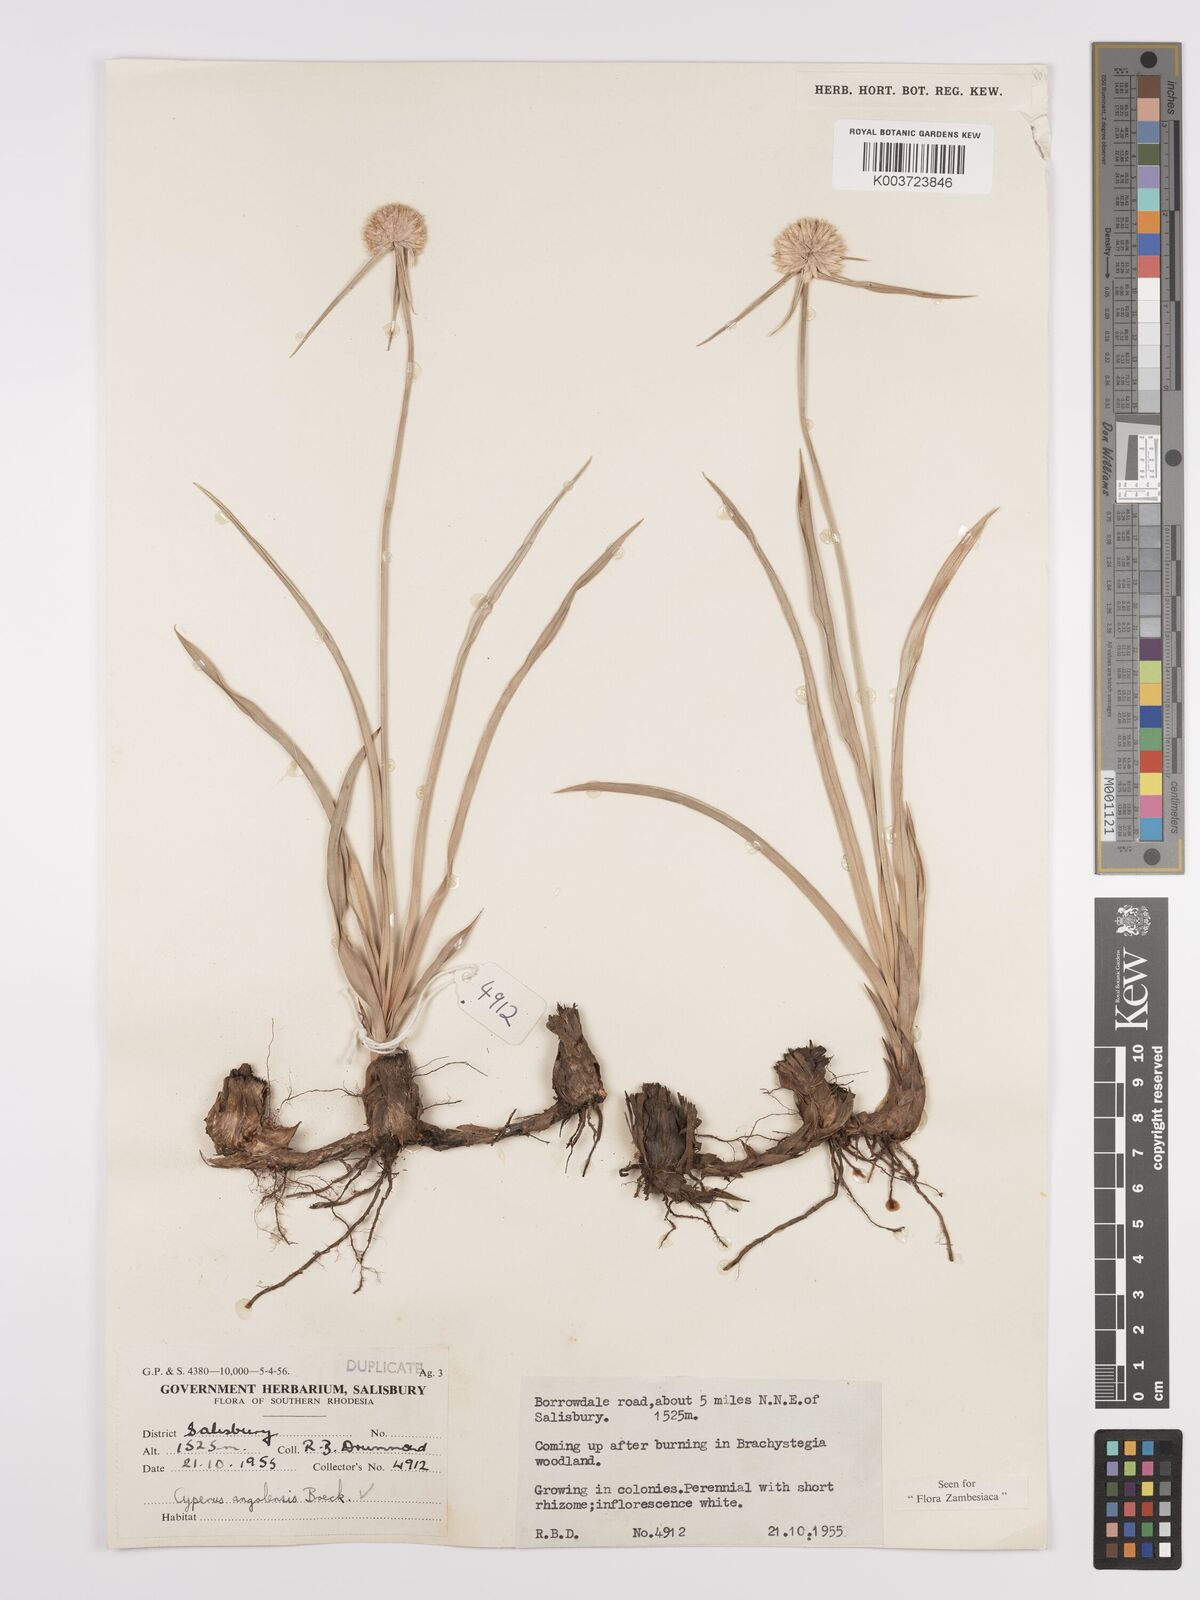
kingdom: Plantae
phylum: Tracheophyta
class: Liliopsida
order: Poales
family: Cyperaceae
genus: Cyperus
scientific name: Cyperus angolensis
